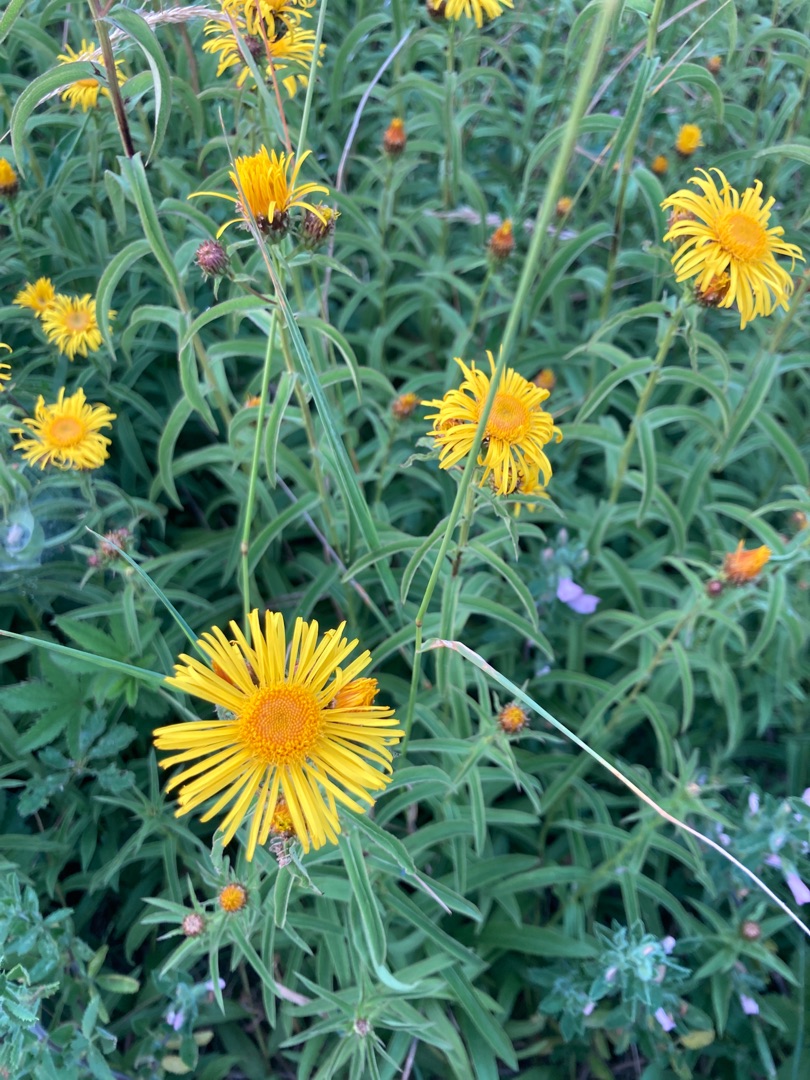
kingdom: Plantae
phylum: Tracheophyta
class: Magnoliopsida
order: Asterales
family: Asteraceae
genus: Pentanema
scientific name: Pentanema salicinum
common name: Pile-alant
